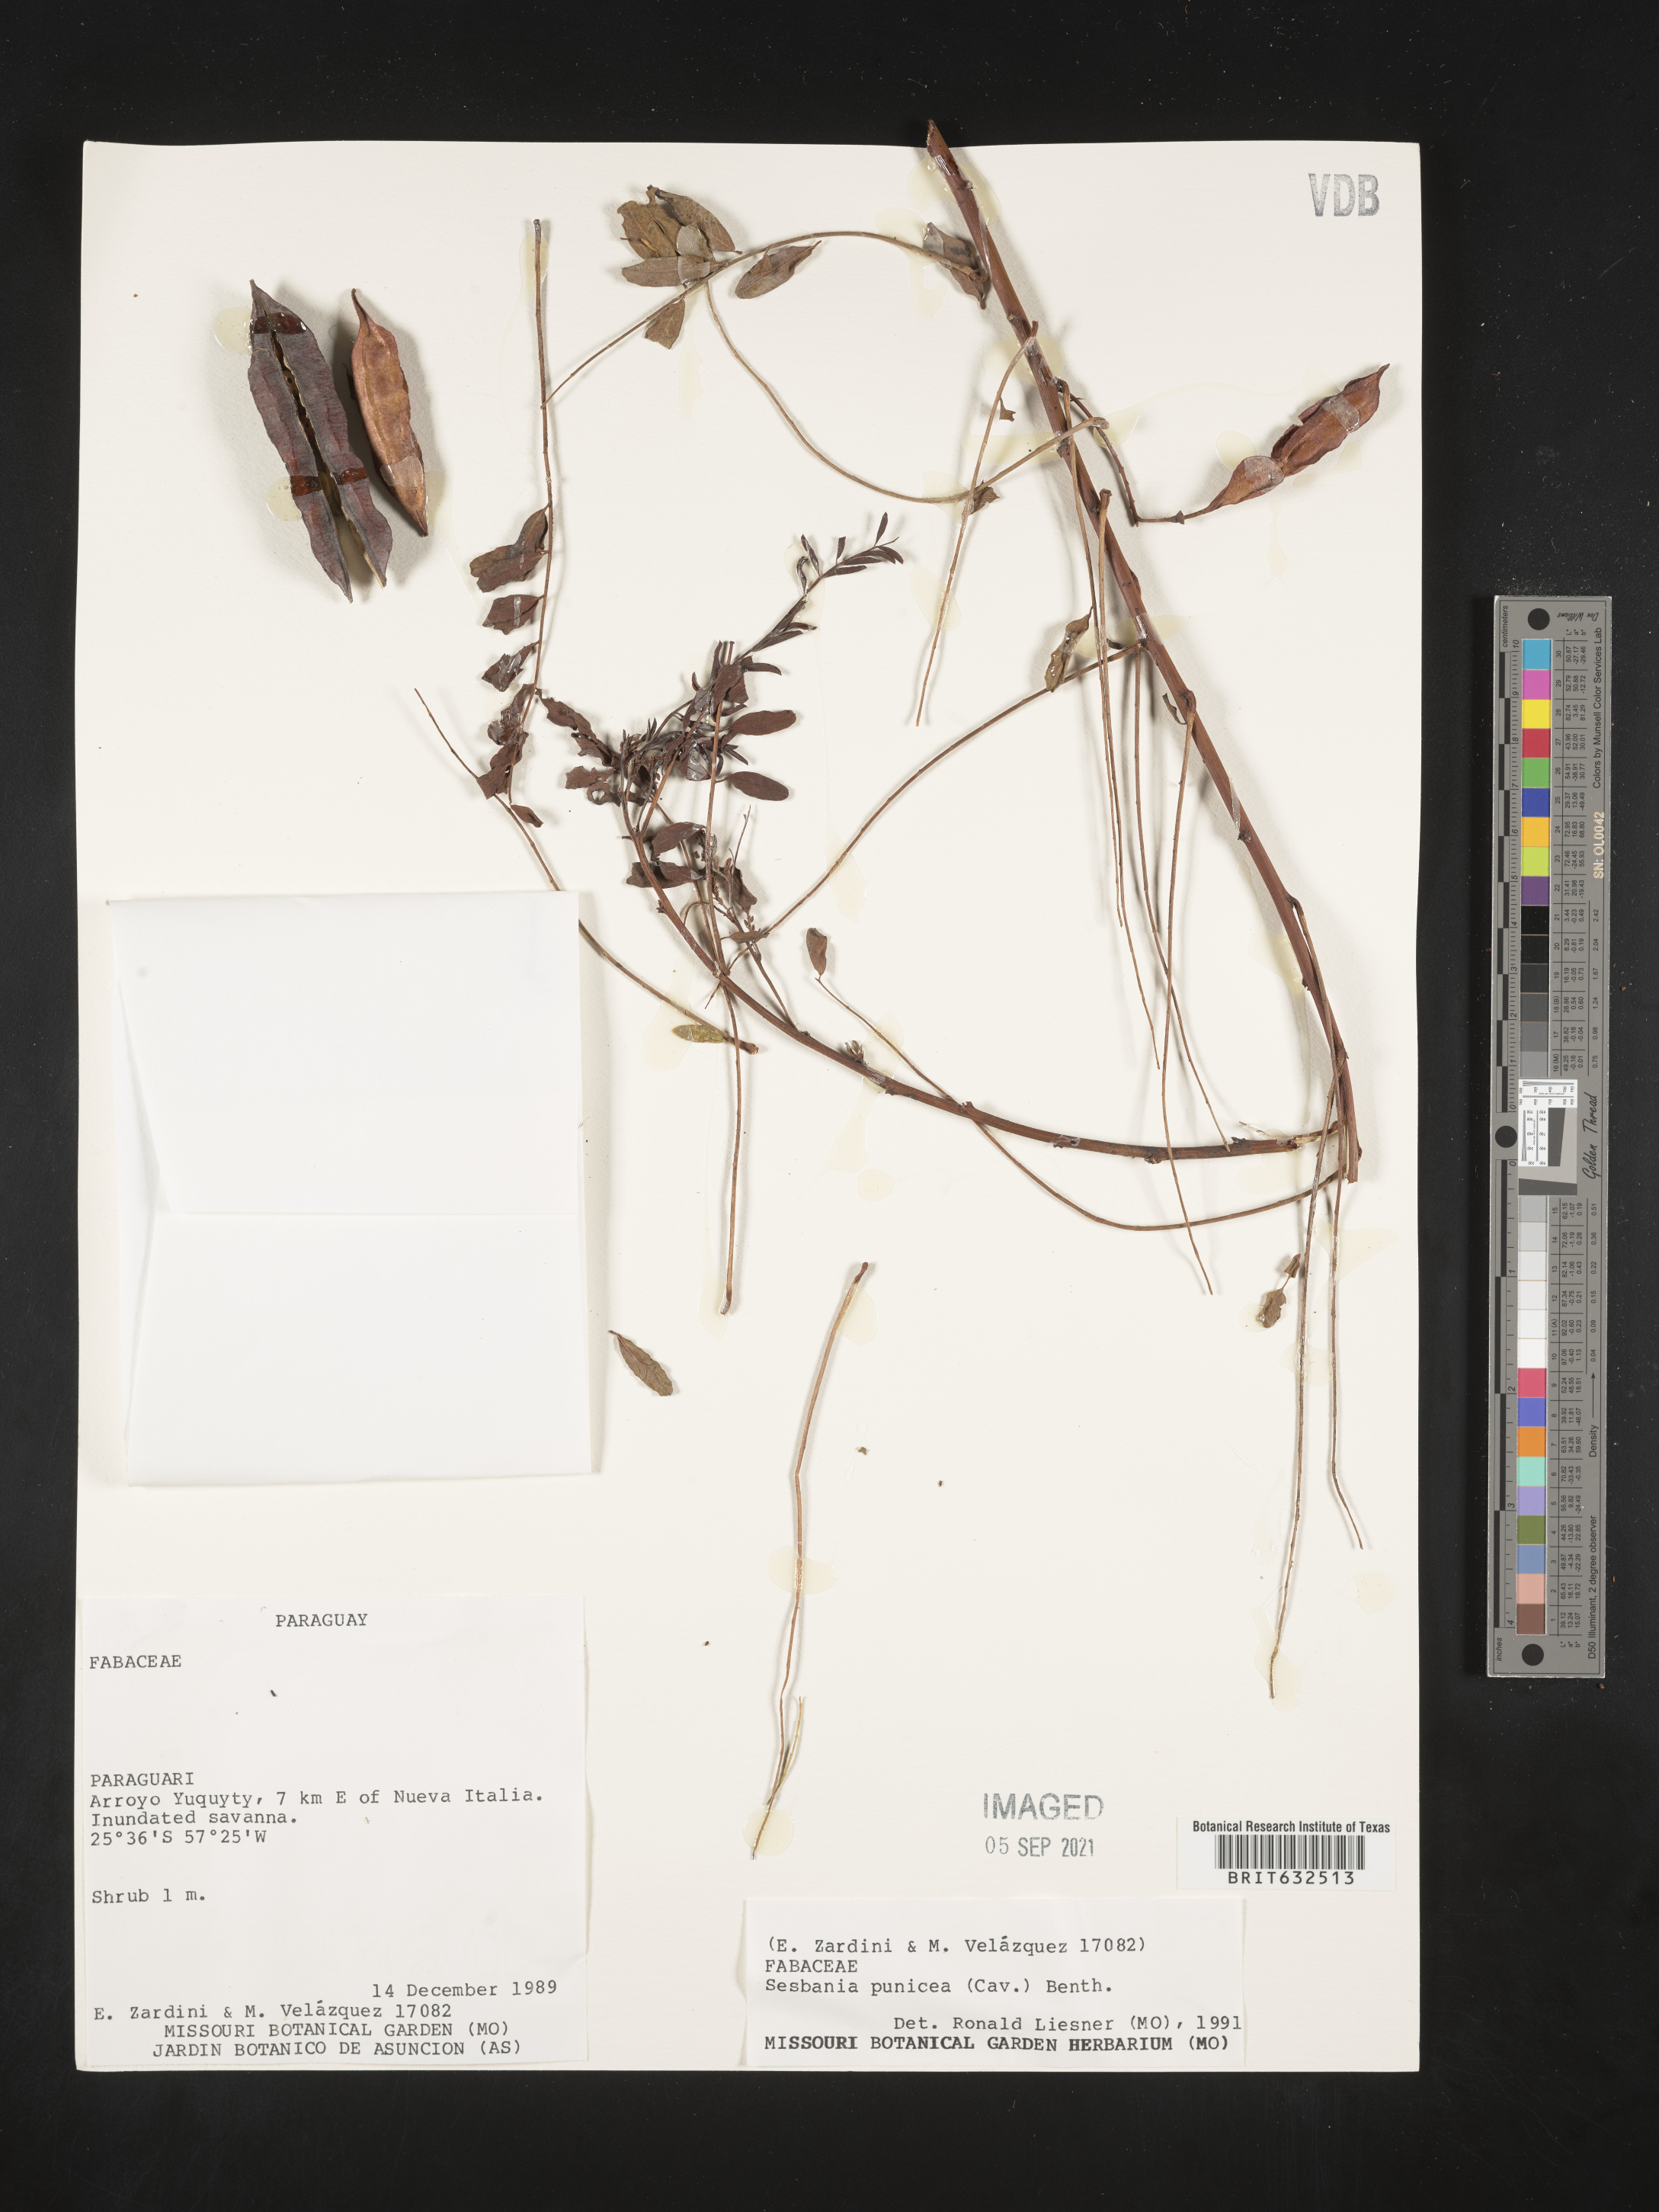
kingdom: Plantae
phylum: Tracheophyta
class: Magnoliopsida
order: Fabales
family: Fabaceae
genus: Sesbania
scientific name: Sesbania
